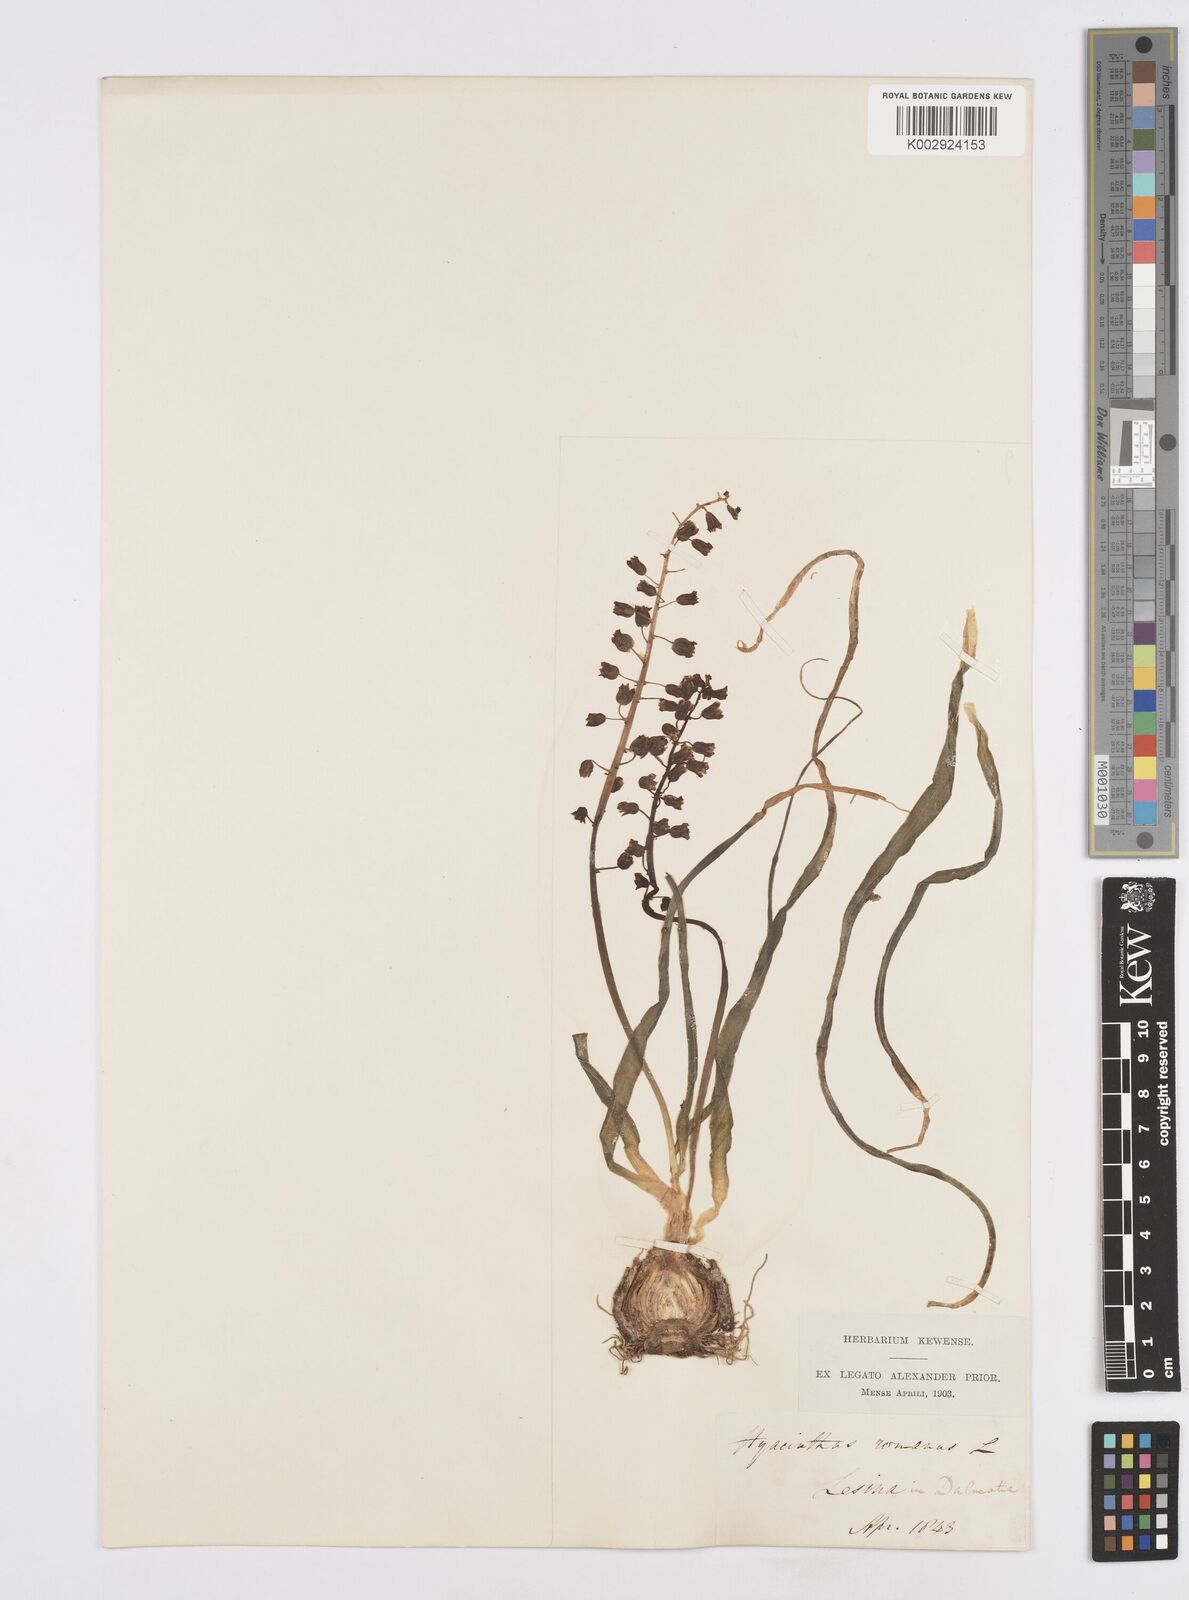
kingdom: Plantae
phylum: Tracheophyta
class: Liliopsida
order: Asparagales
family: Asparagaceae
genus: Bellevalia
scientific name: Bellevalia
